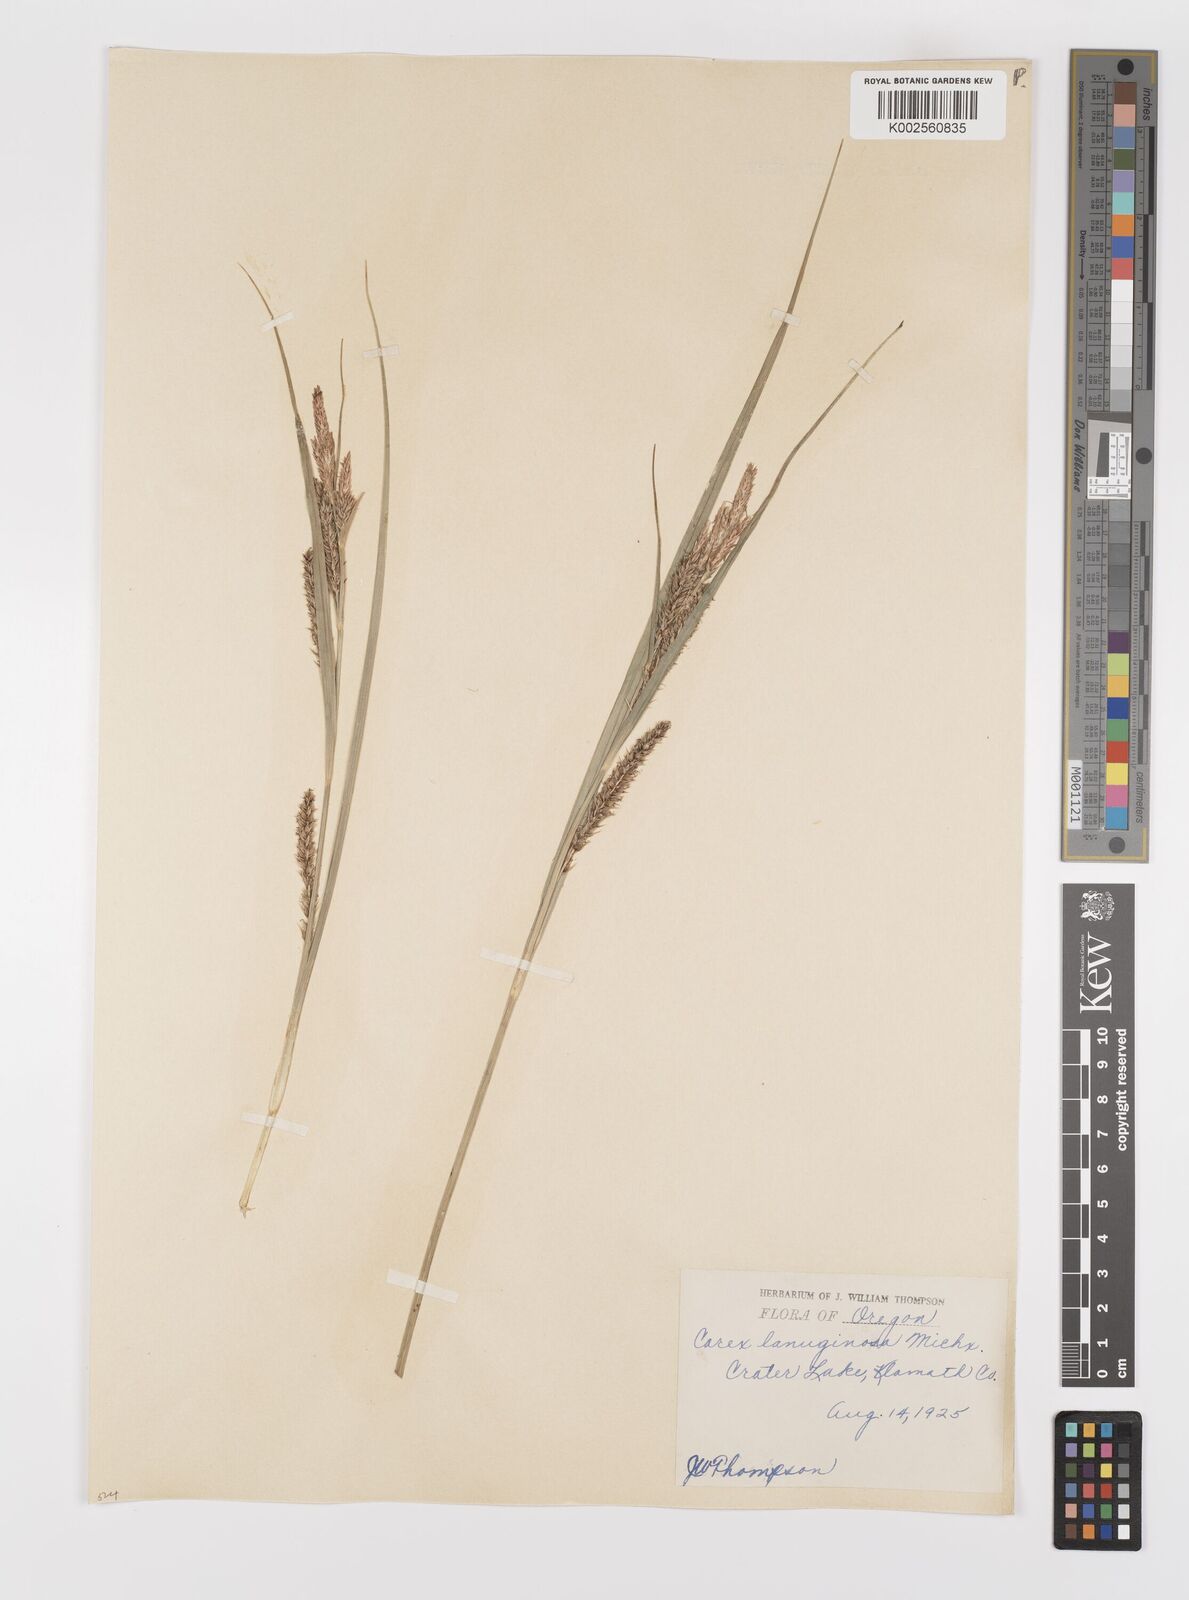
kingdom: Plantae
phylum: Tracheophyta
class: Liliopsida
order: Poales
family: Cyperaceae
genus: Carex
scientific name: Carex lasiocarpa
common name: Slender sedge
